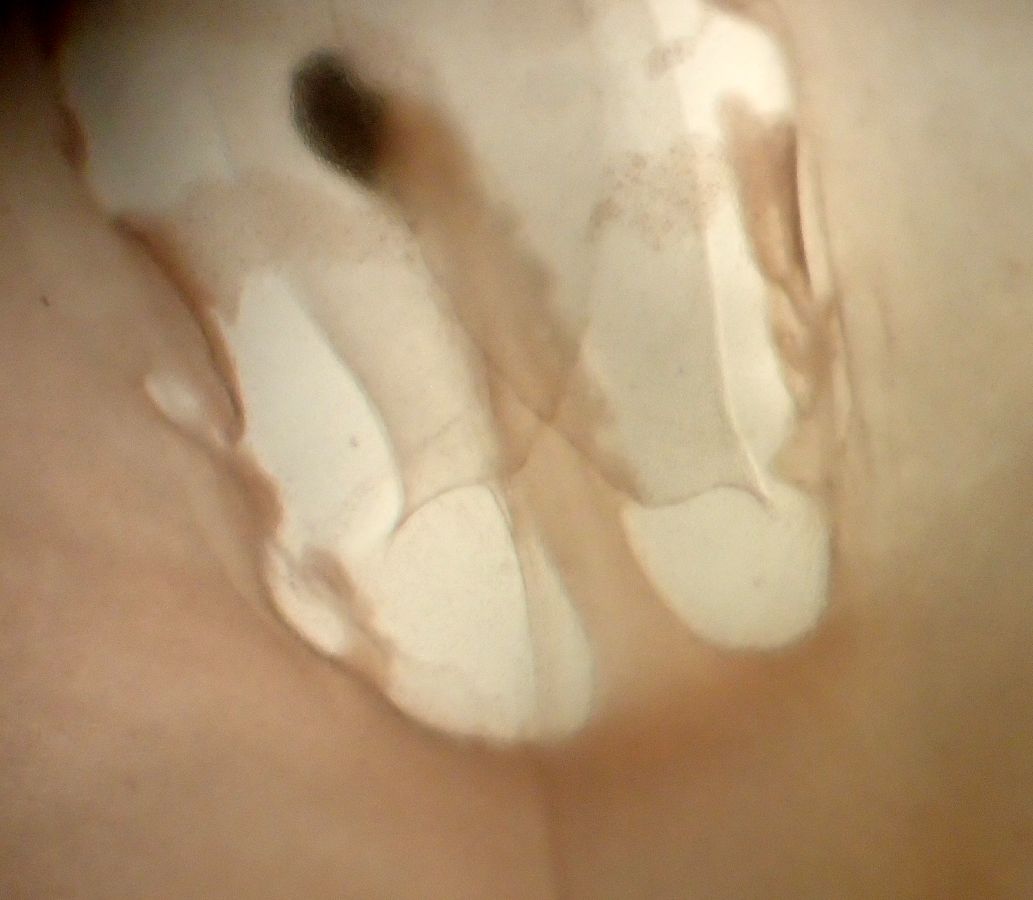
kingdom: Animalia
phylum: Cnidaria
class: Scyphozoa
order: Semaeostomeae
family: Cyaneidae
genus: Cyanea
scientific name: Cyanea capillata
